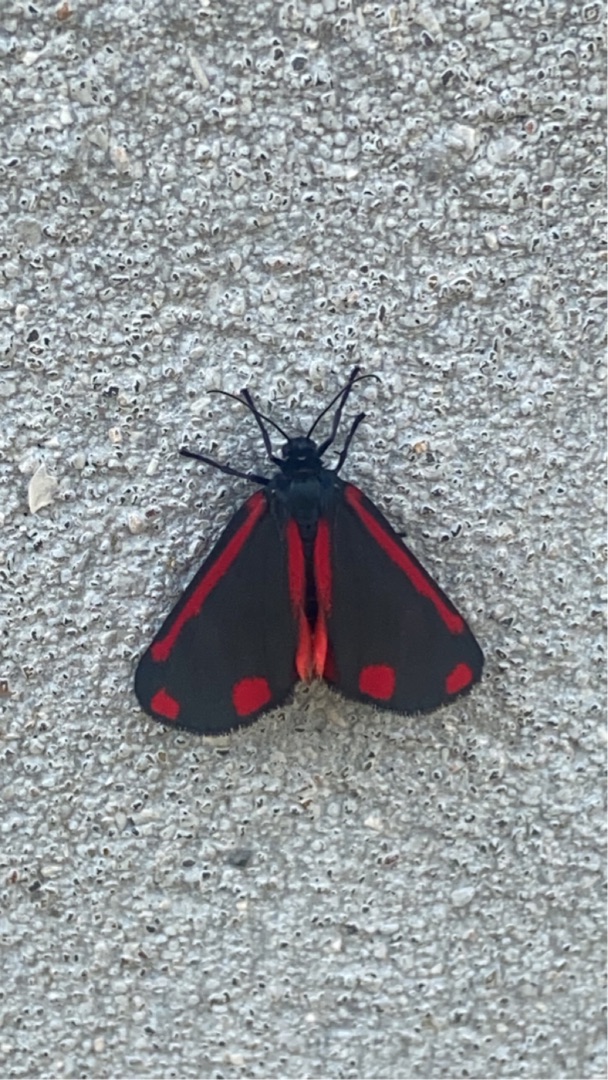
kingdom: Animalia
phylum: Arthropoda
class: Insecta
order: Lepidoptera
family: Erebidae
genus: Tyria
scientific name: Tyria jacobaeae
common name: Blodplet
